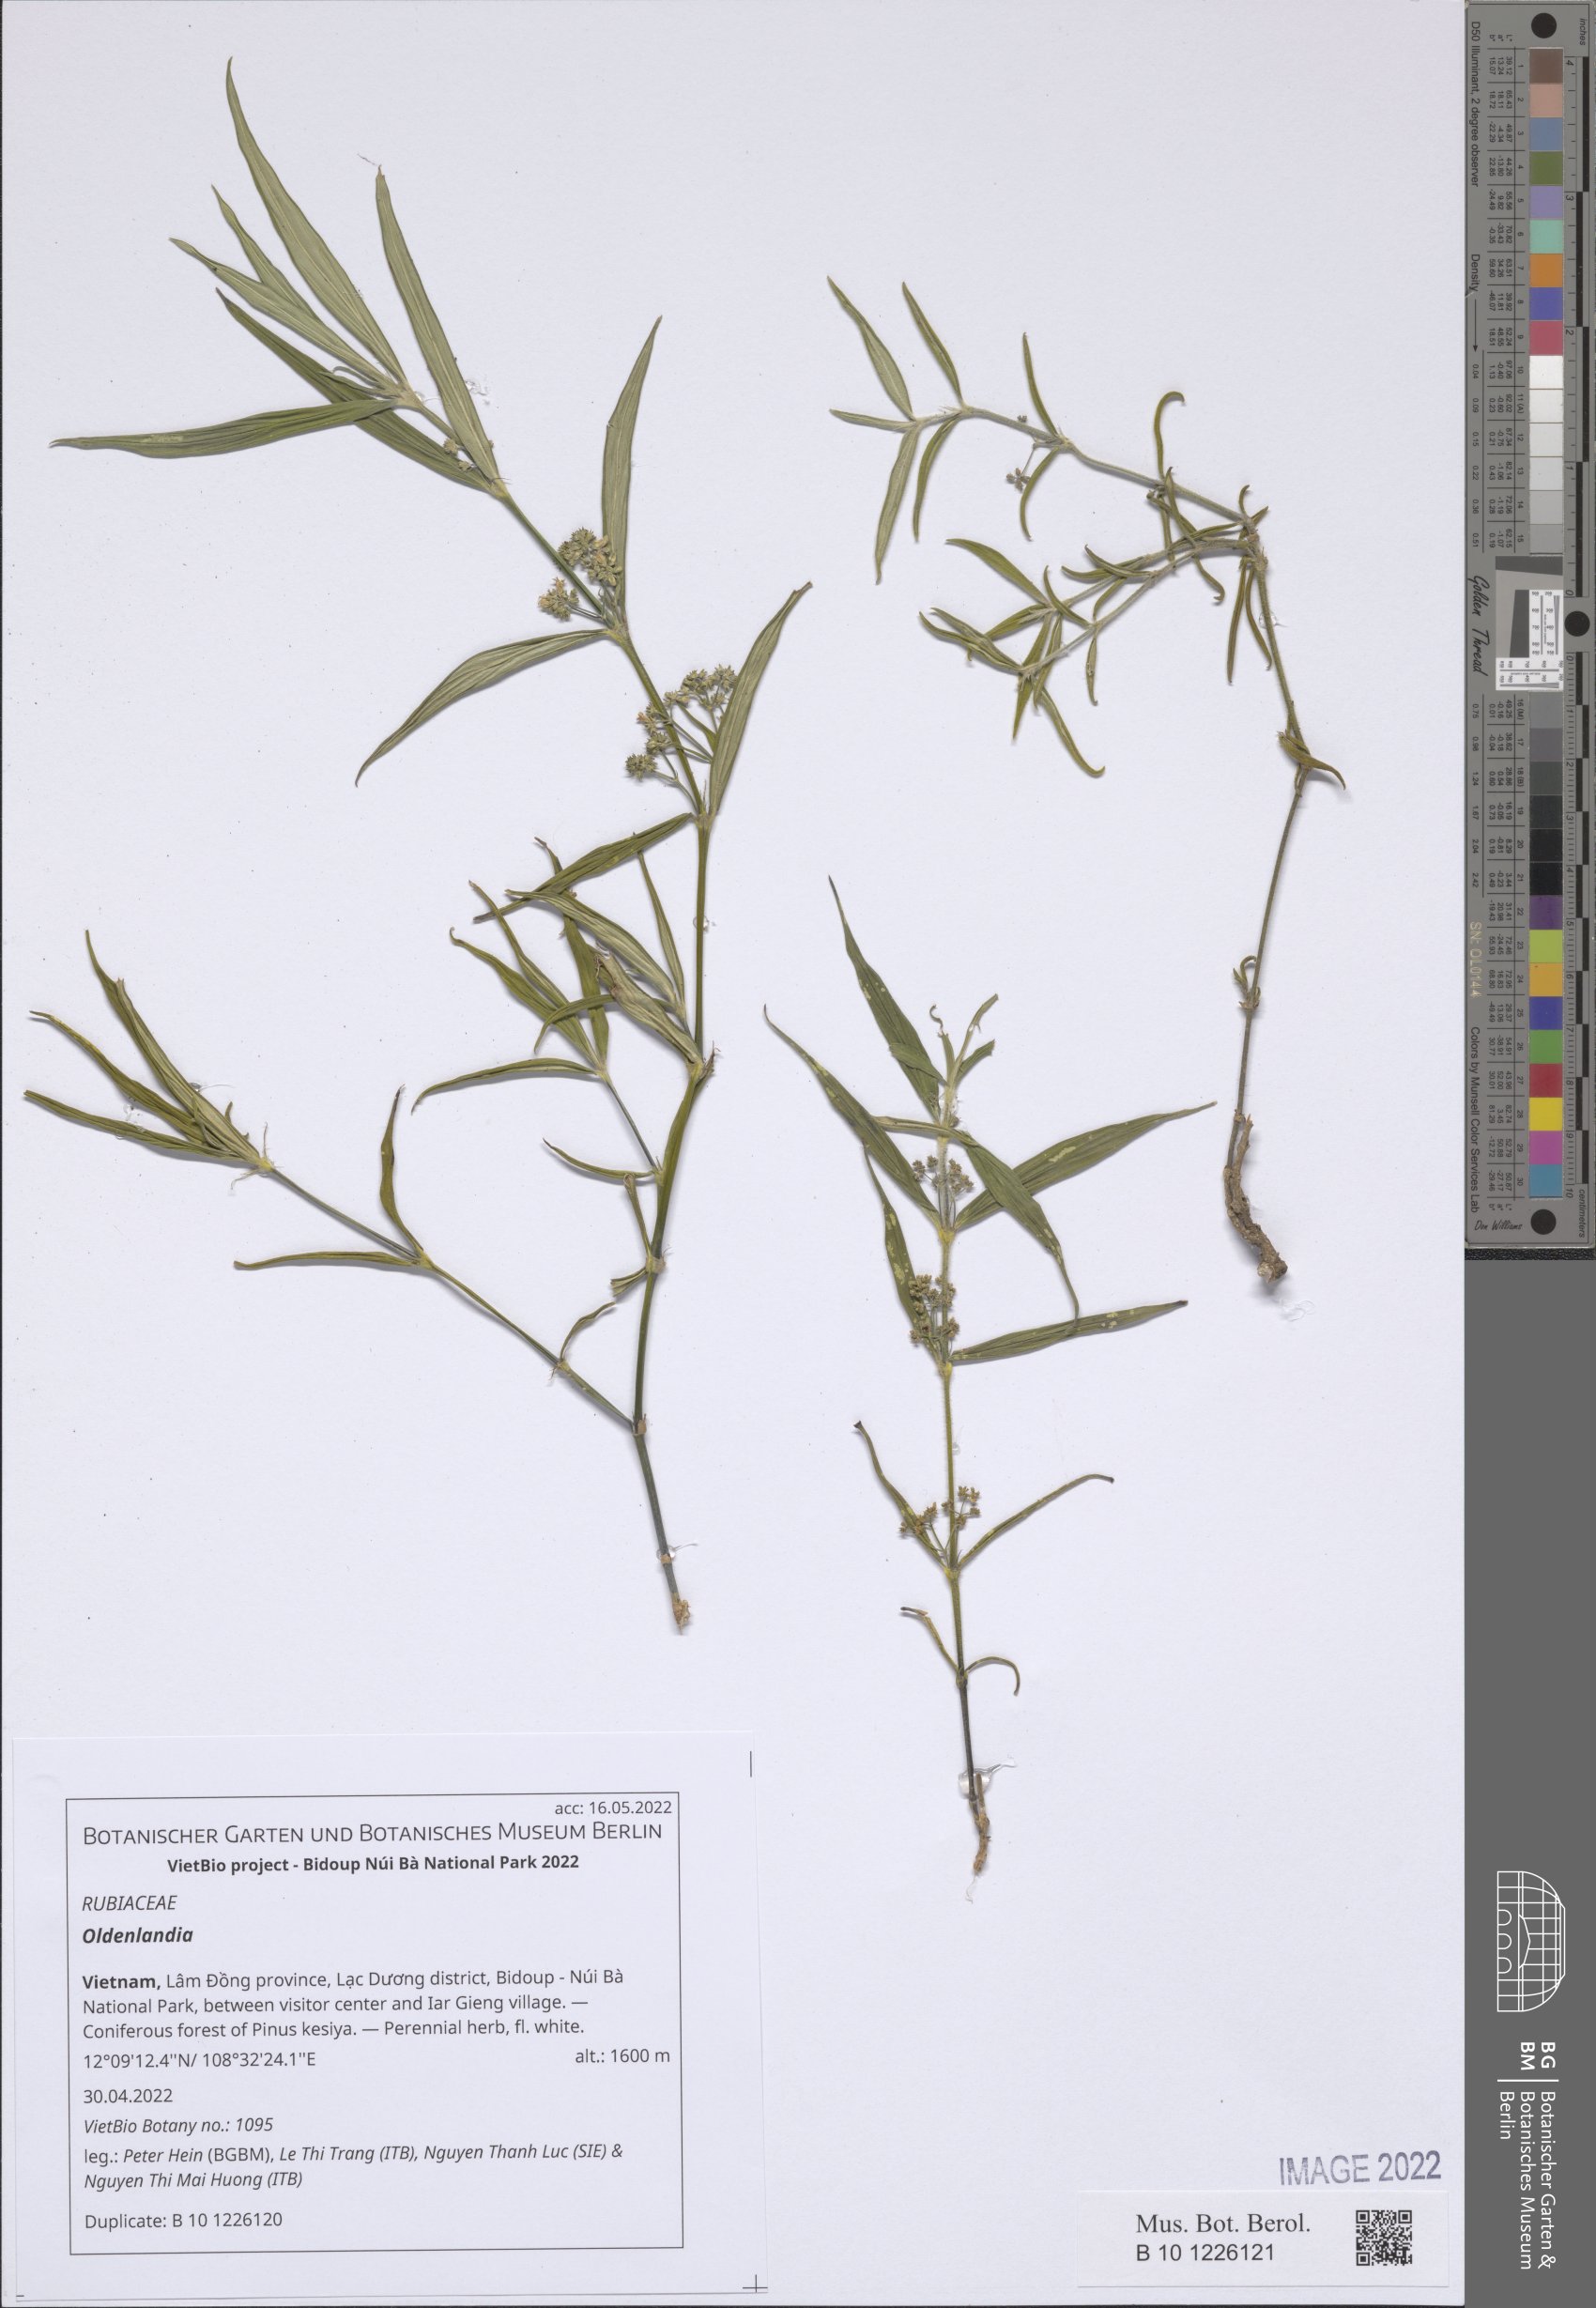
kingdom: Plantae
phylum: Tracheophyta
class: Magnoliopsida
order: Gentianales
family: Rubiaceae
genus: Oldenlandia
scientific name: Oldenlandia
